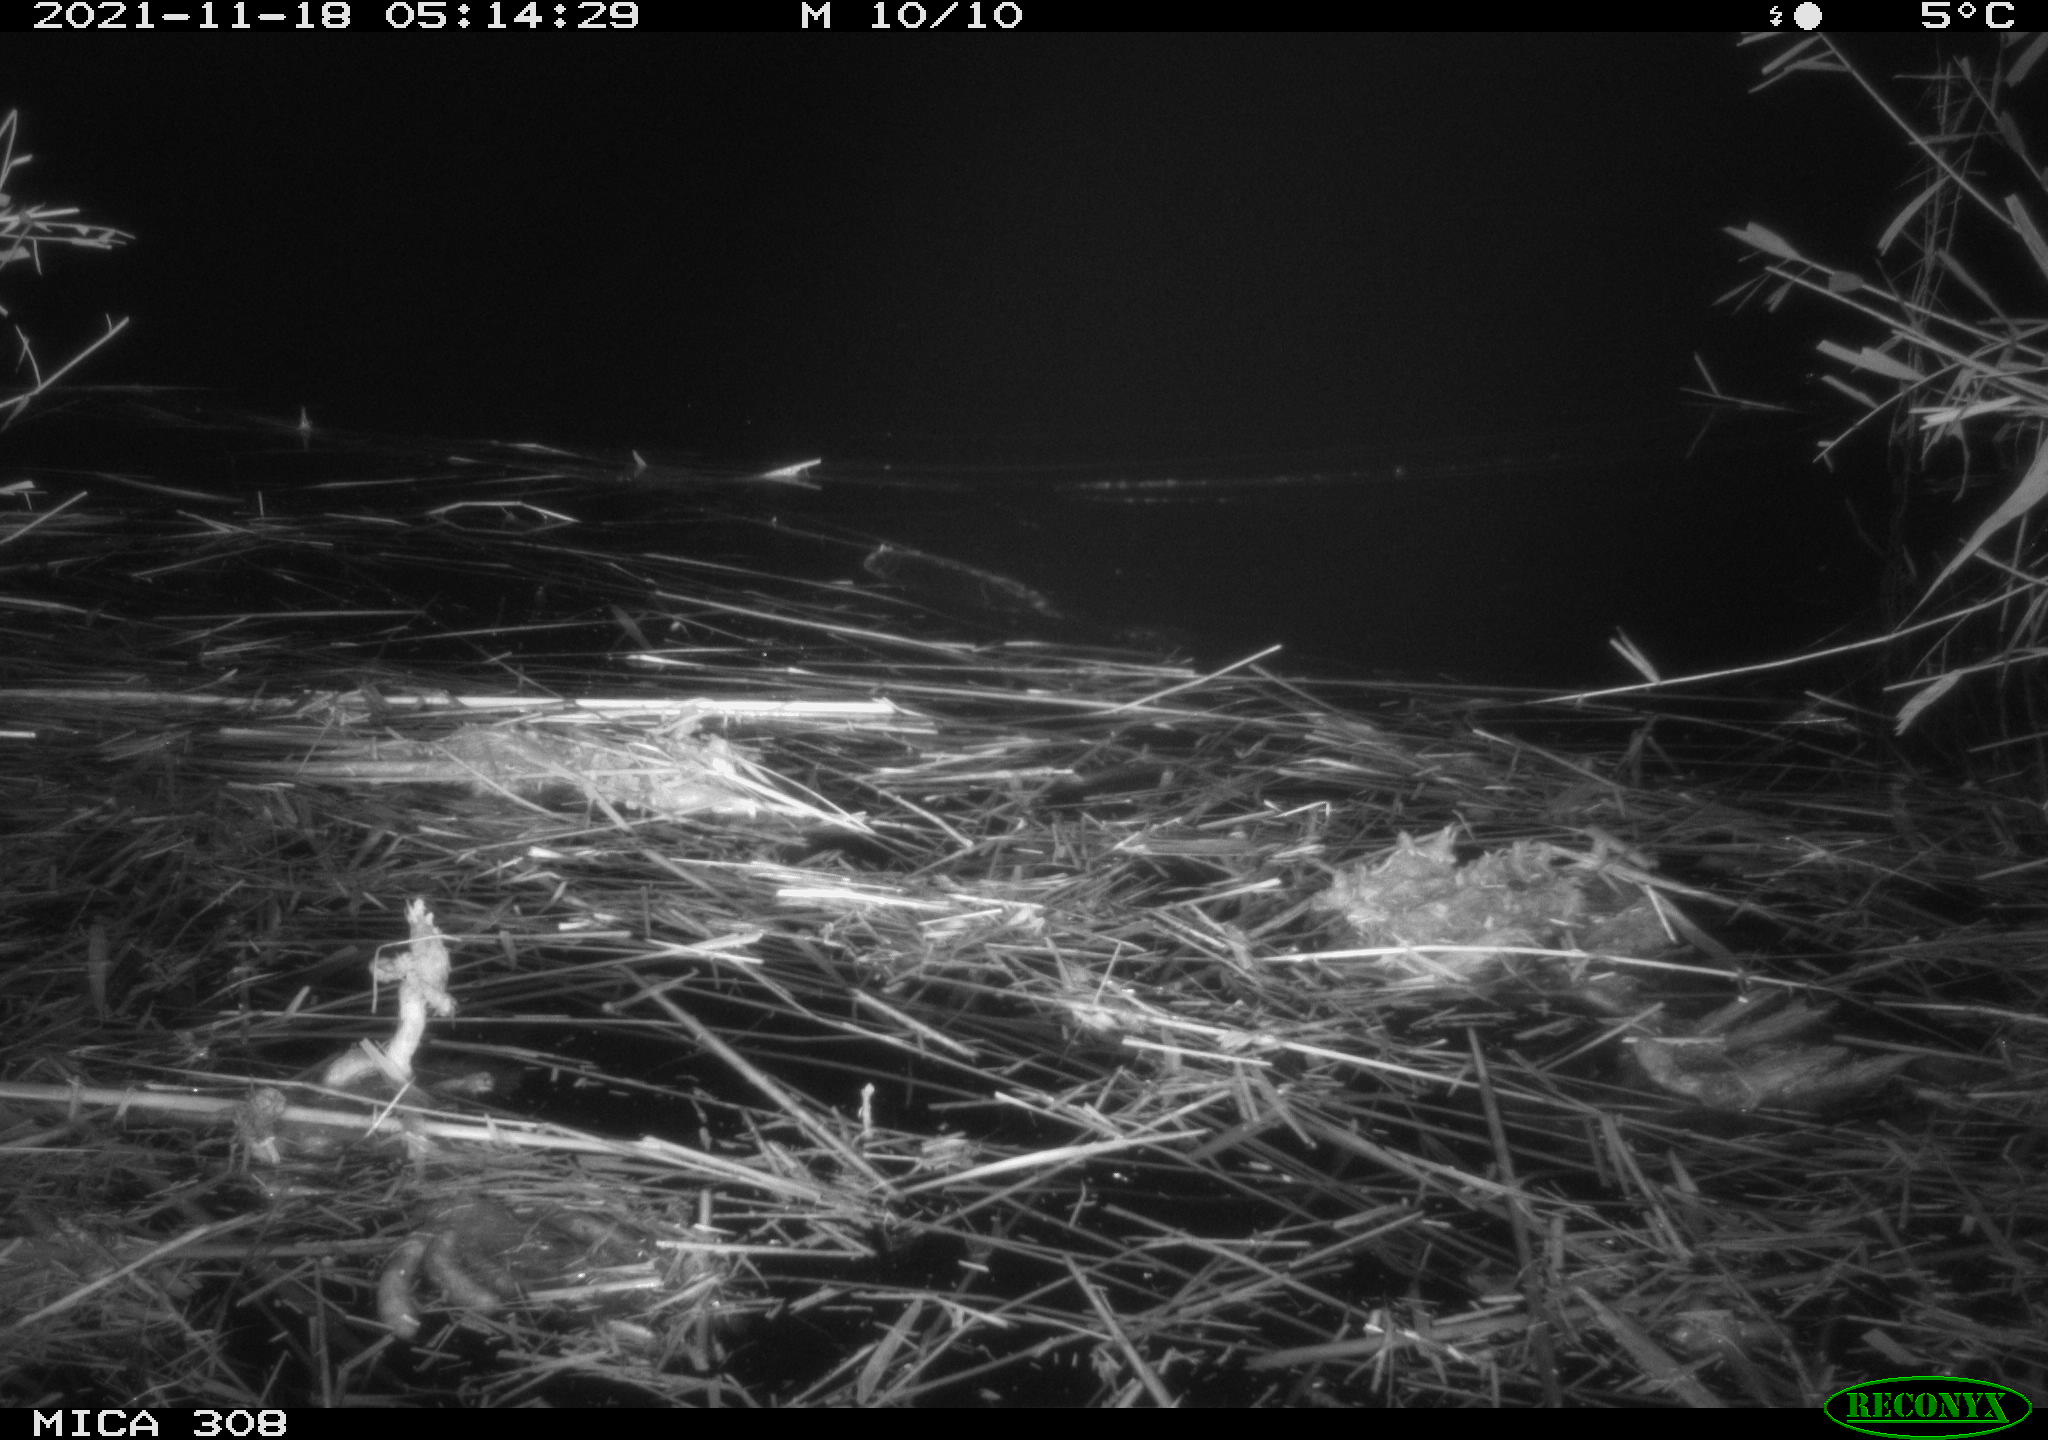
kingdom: Animalia
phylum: Chordata
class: Mammalia
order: Rodentia
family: Muridae
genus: Rattus
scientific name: Rattus norvegicus
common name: Brown rat
